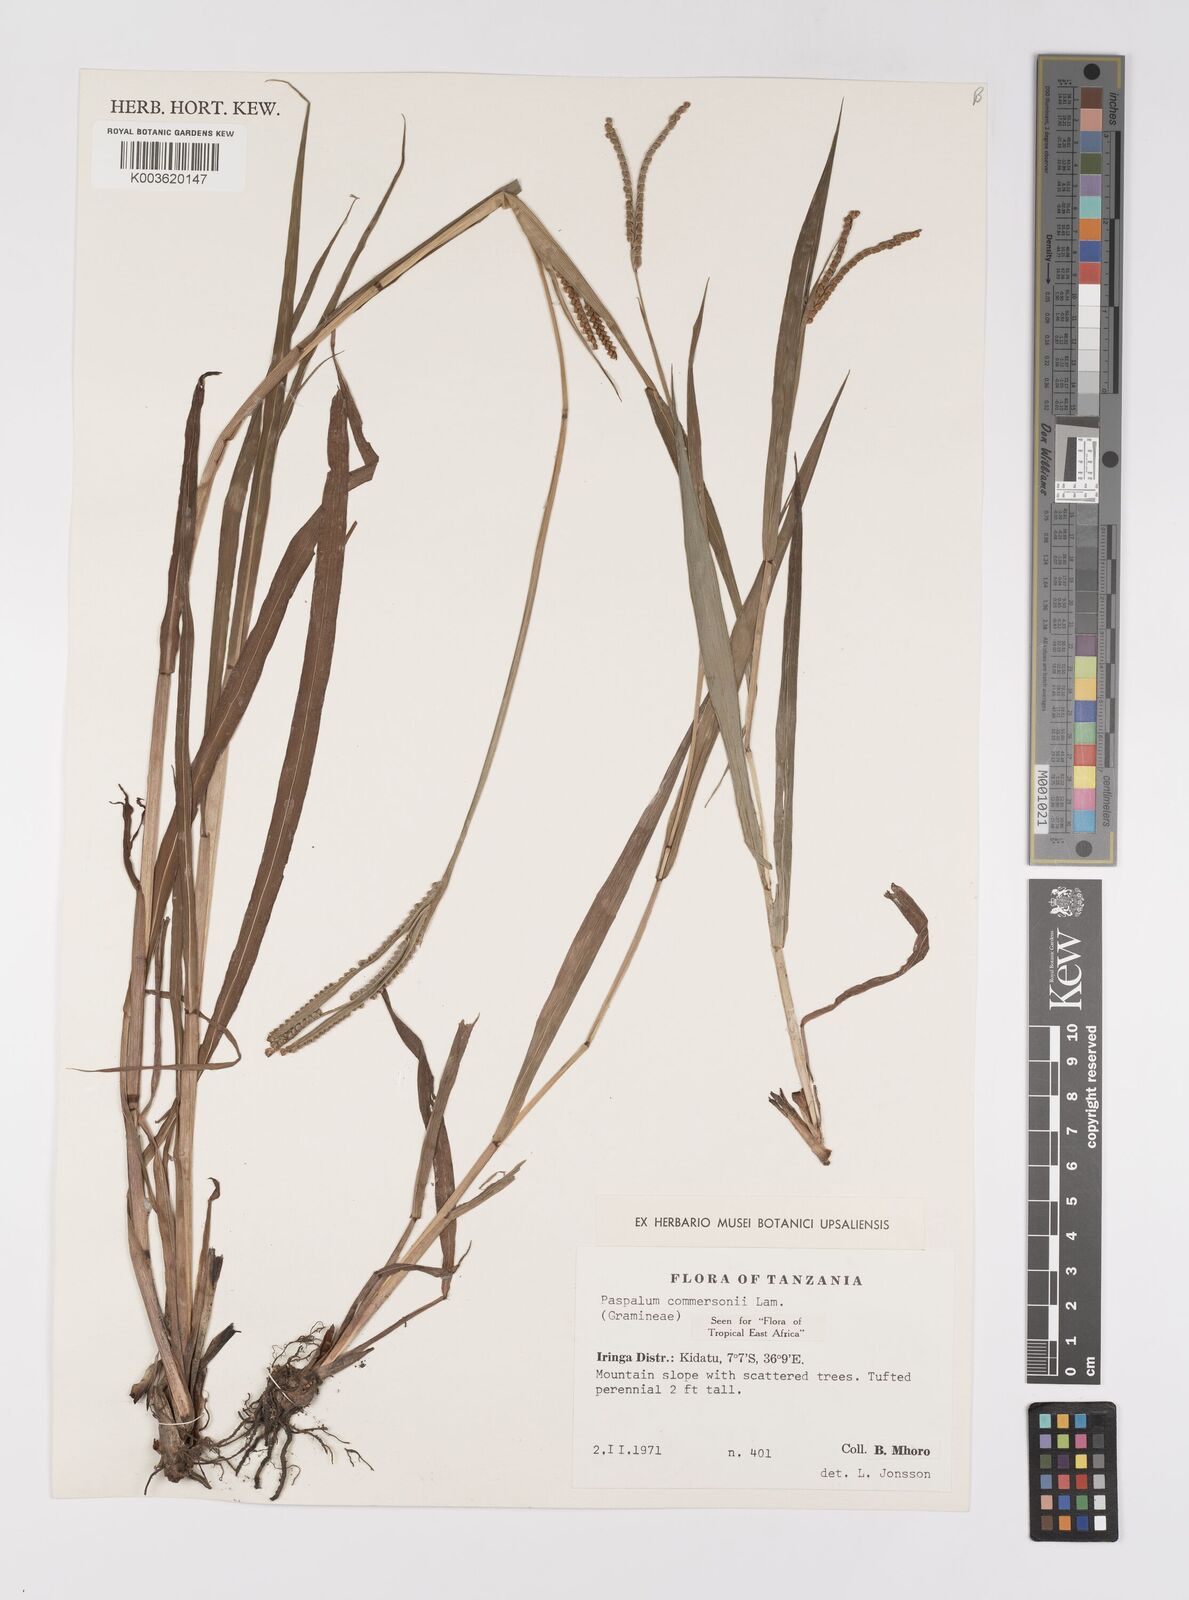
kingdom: Plantae
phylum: Tracheophyta
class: Liliopsida
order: Poales
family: Poaceae
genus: Paspalum
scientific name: Paspalum scrobiculatum
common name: Kodo millet
